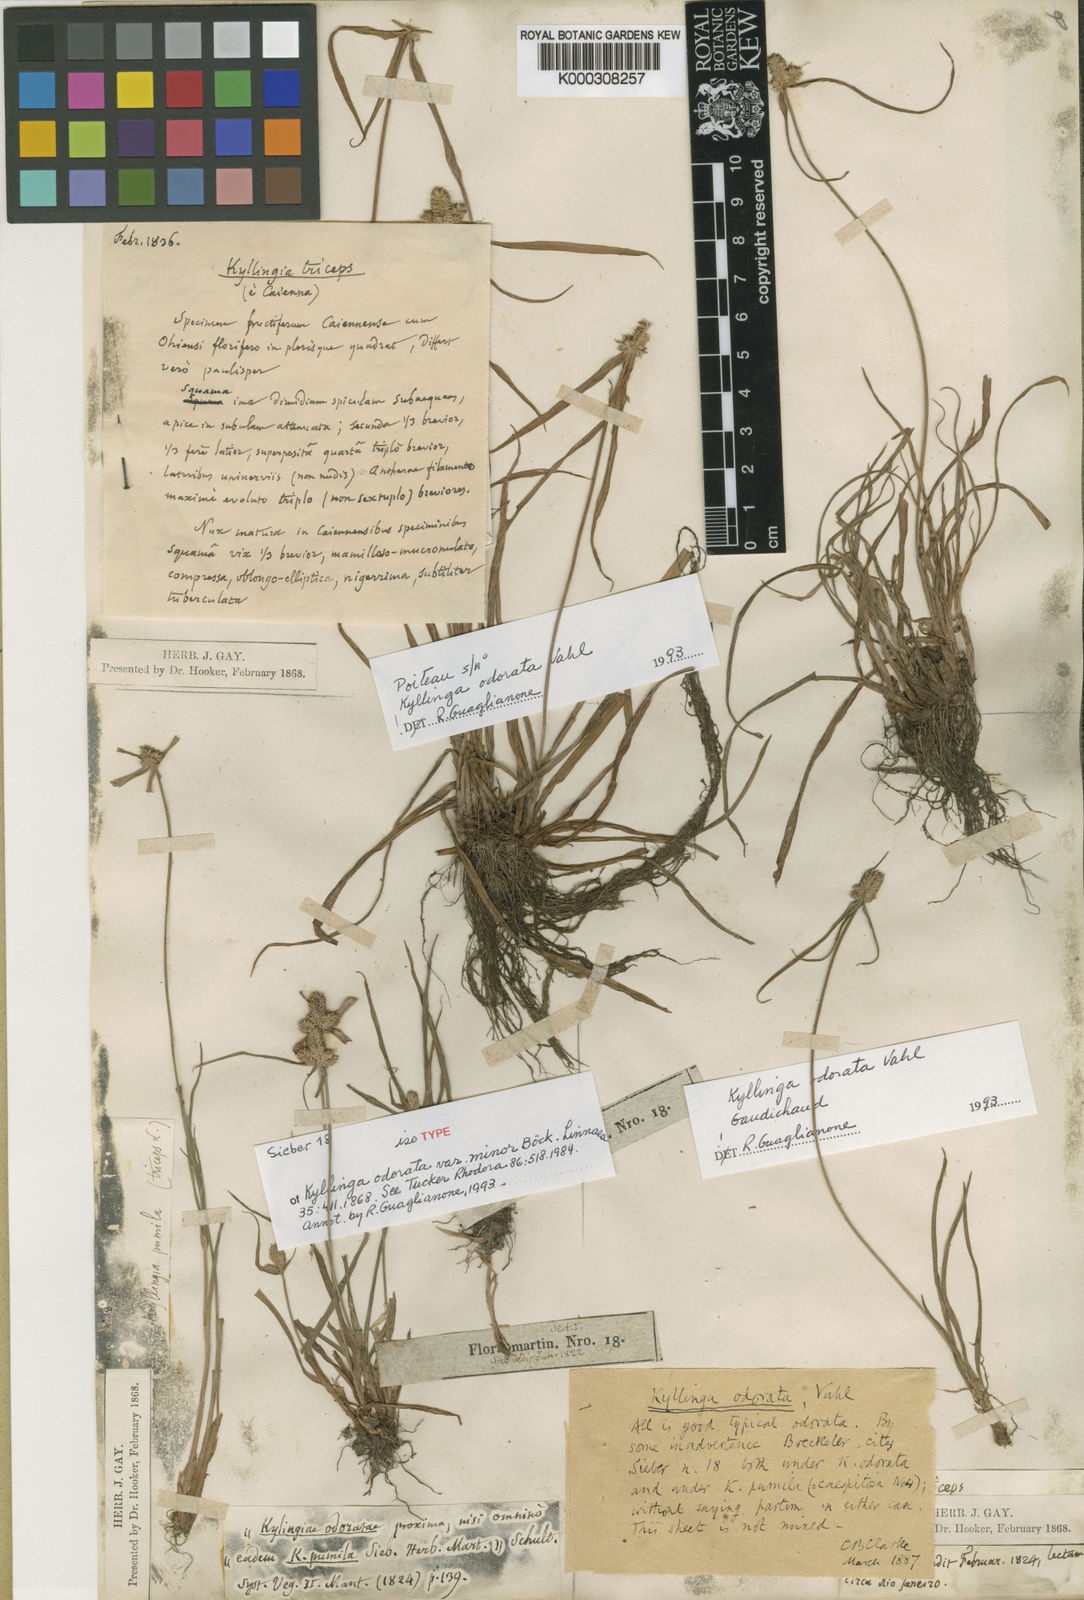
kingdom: Plantae
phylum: Tracheophyta
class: Liliopsida
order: Poales
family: Cyperaceae
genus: Cyperus
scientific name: Cyperus sesquiflorus
